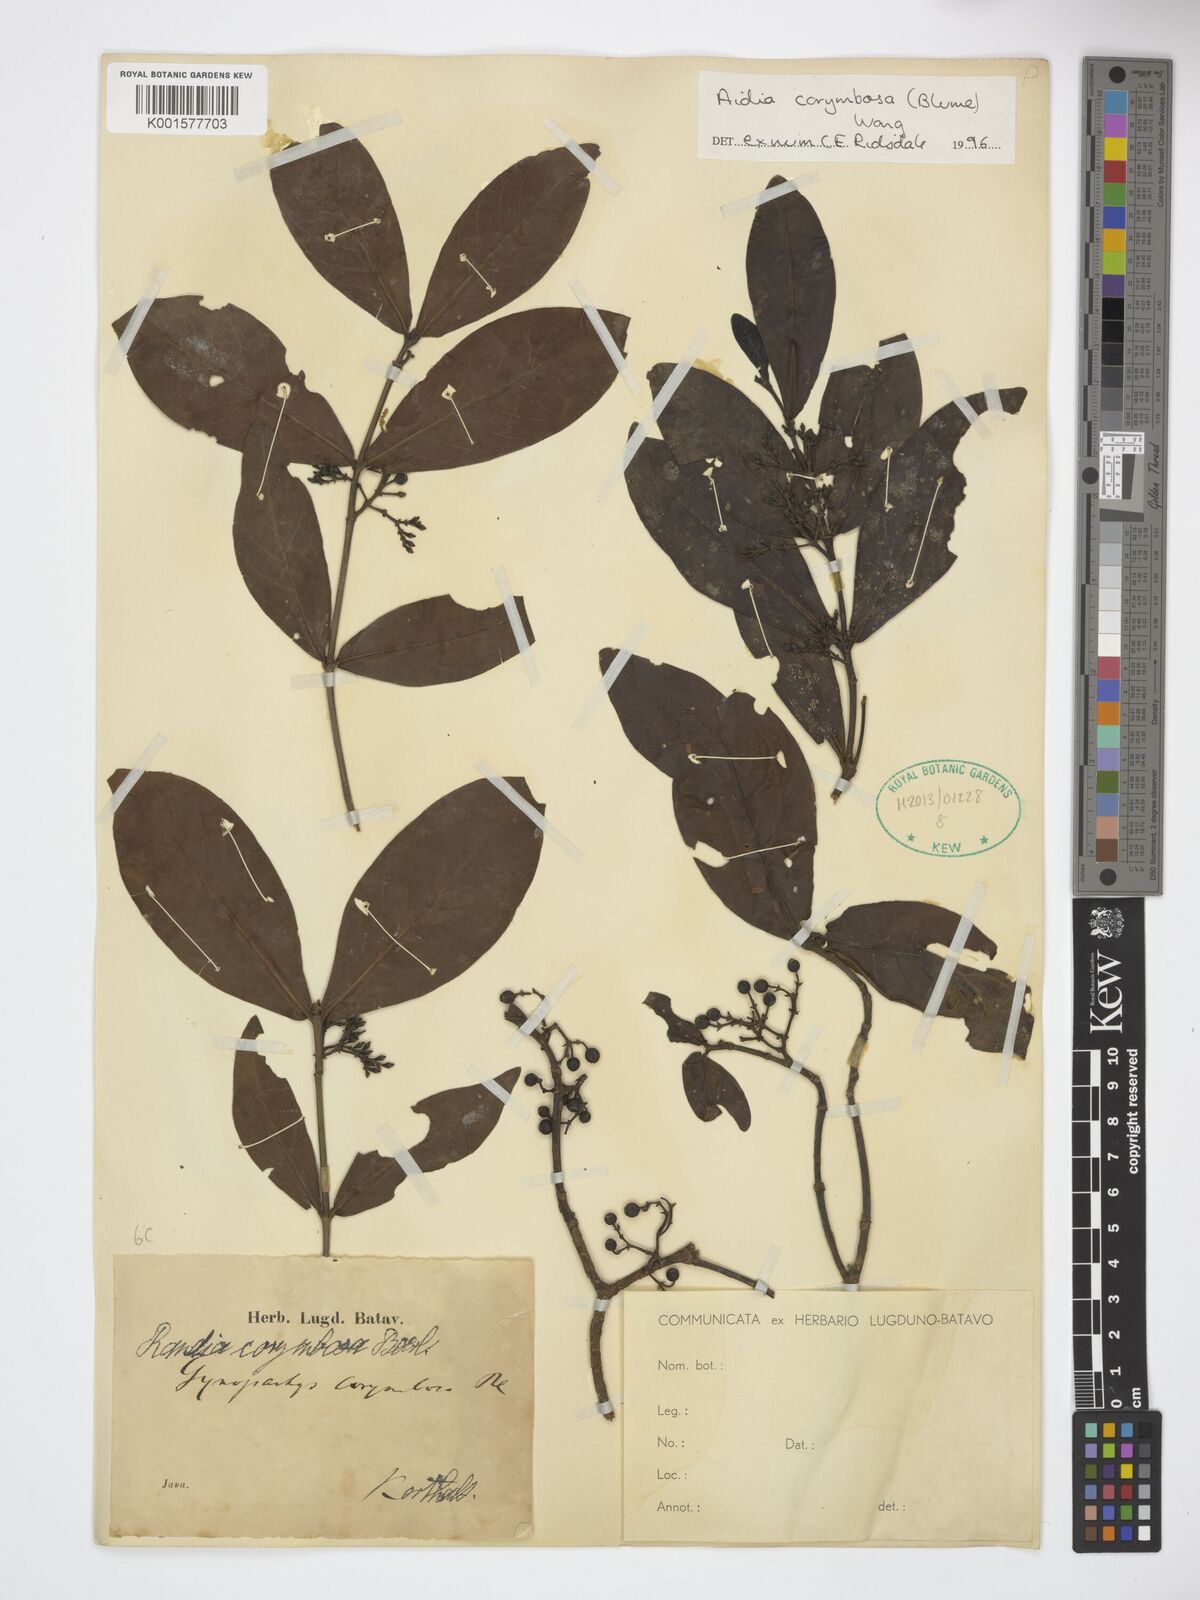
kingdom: Plantae
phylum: Tracheophyta
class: Magnoliopsida
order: Gentianales
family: Rubiaceae
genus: Aidia
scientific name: Aidia corymbosa
